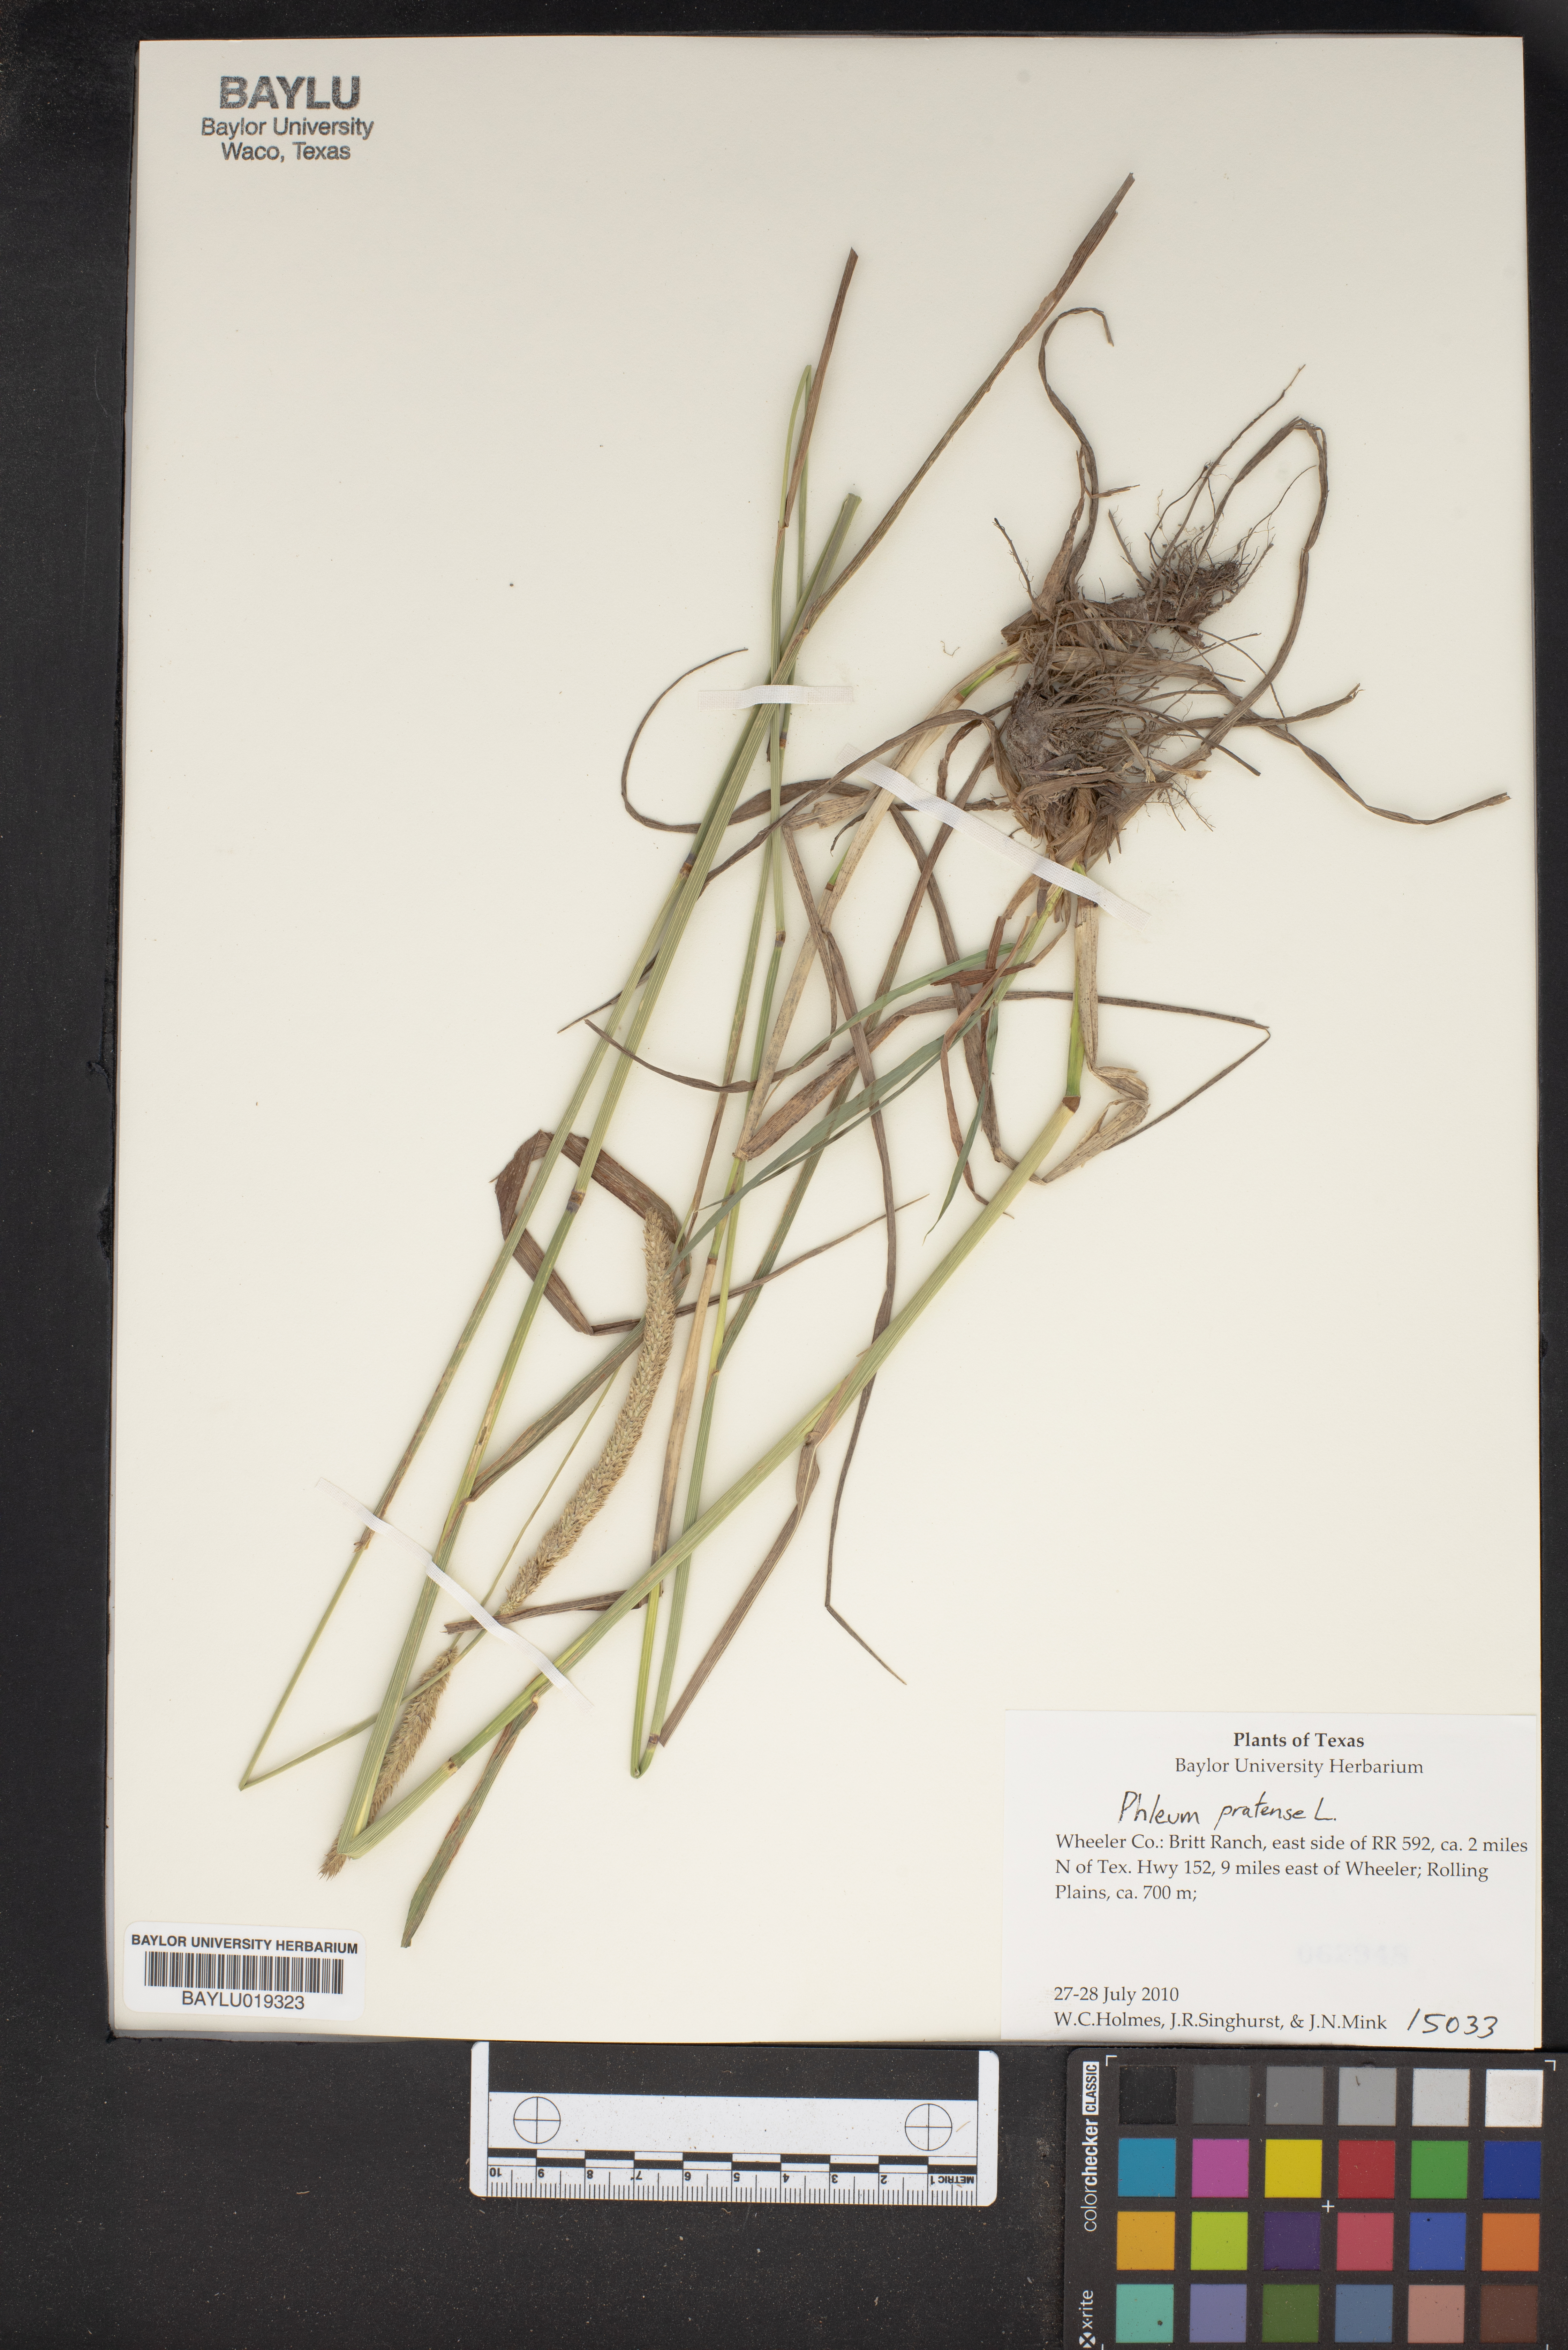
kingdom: Plantae
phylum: Tracheophyta
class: Liliopsida
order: Poales
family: Poaceae
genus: Phleum
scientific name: Phleum pratense
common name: Timothy grass
